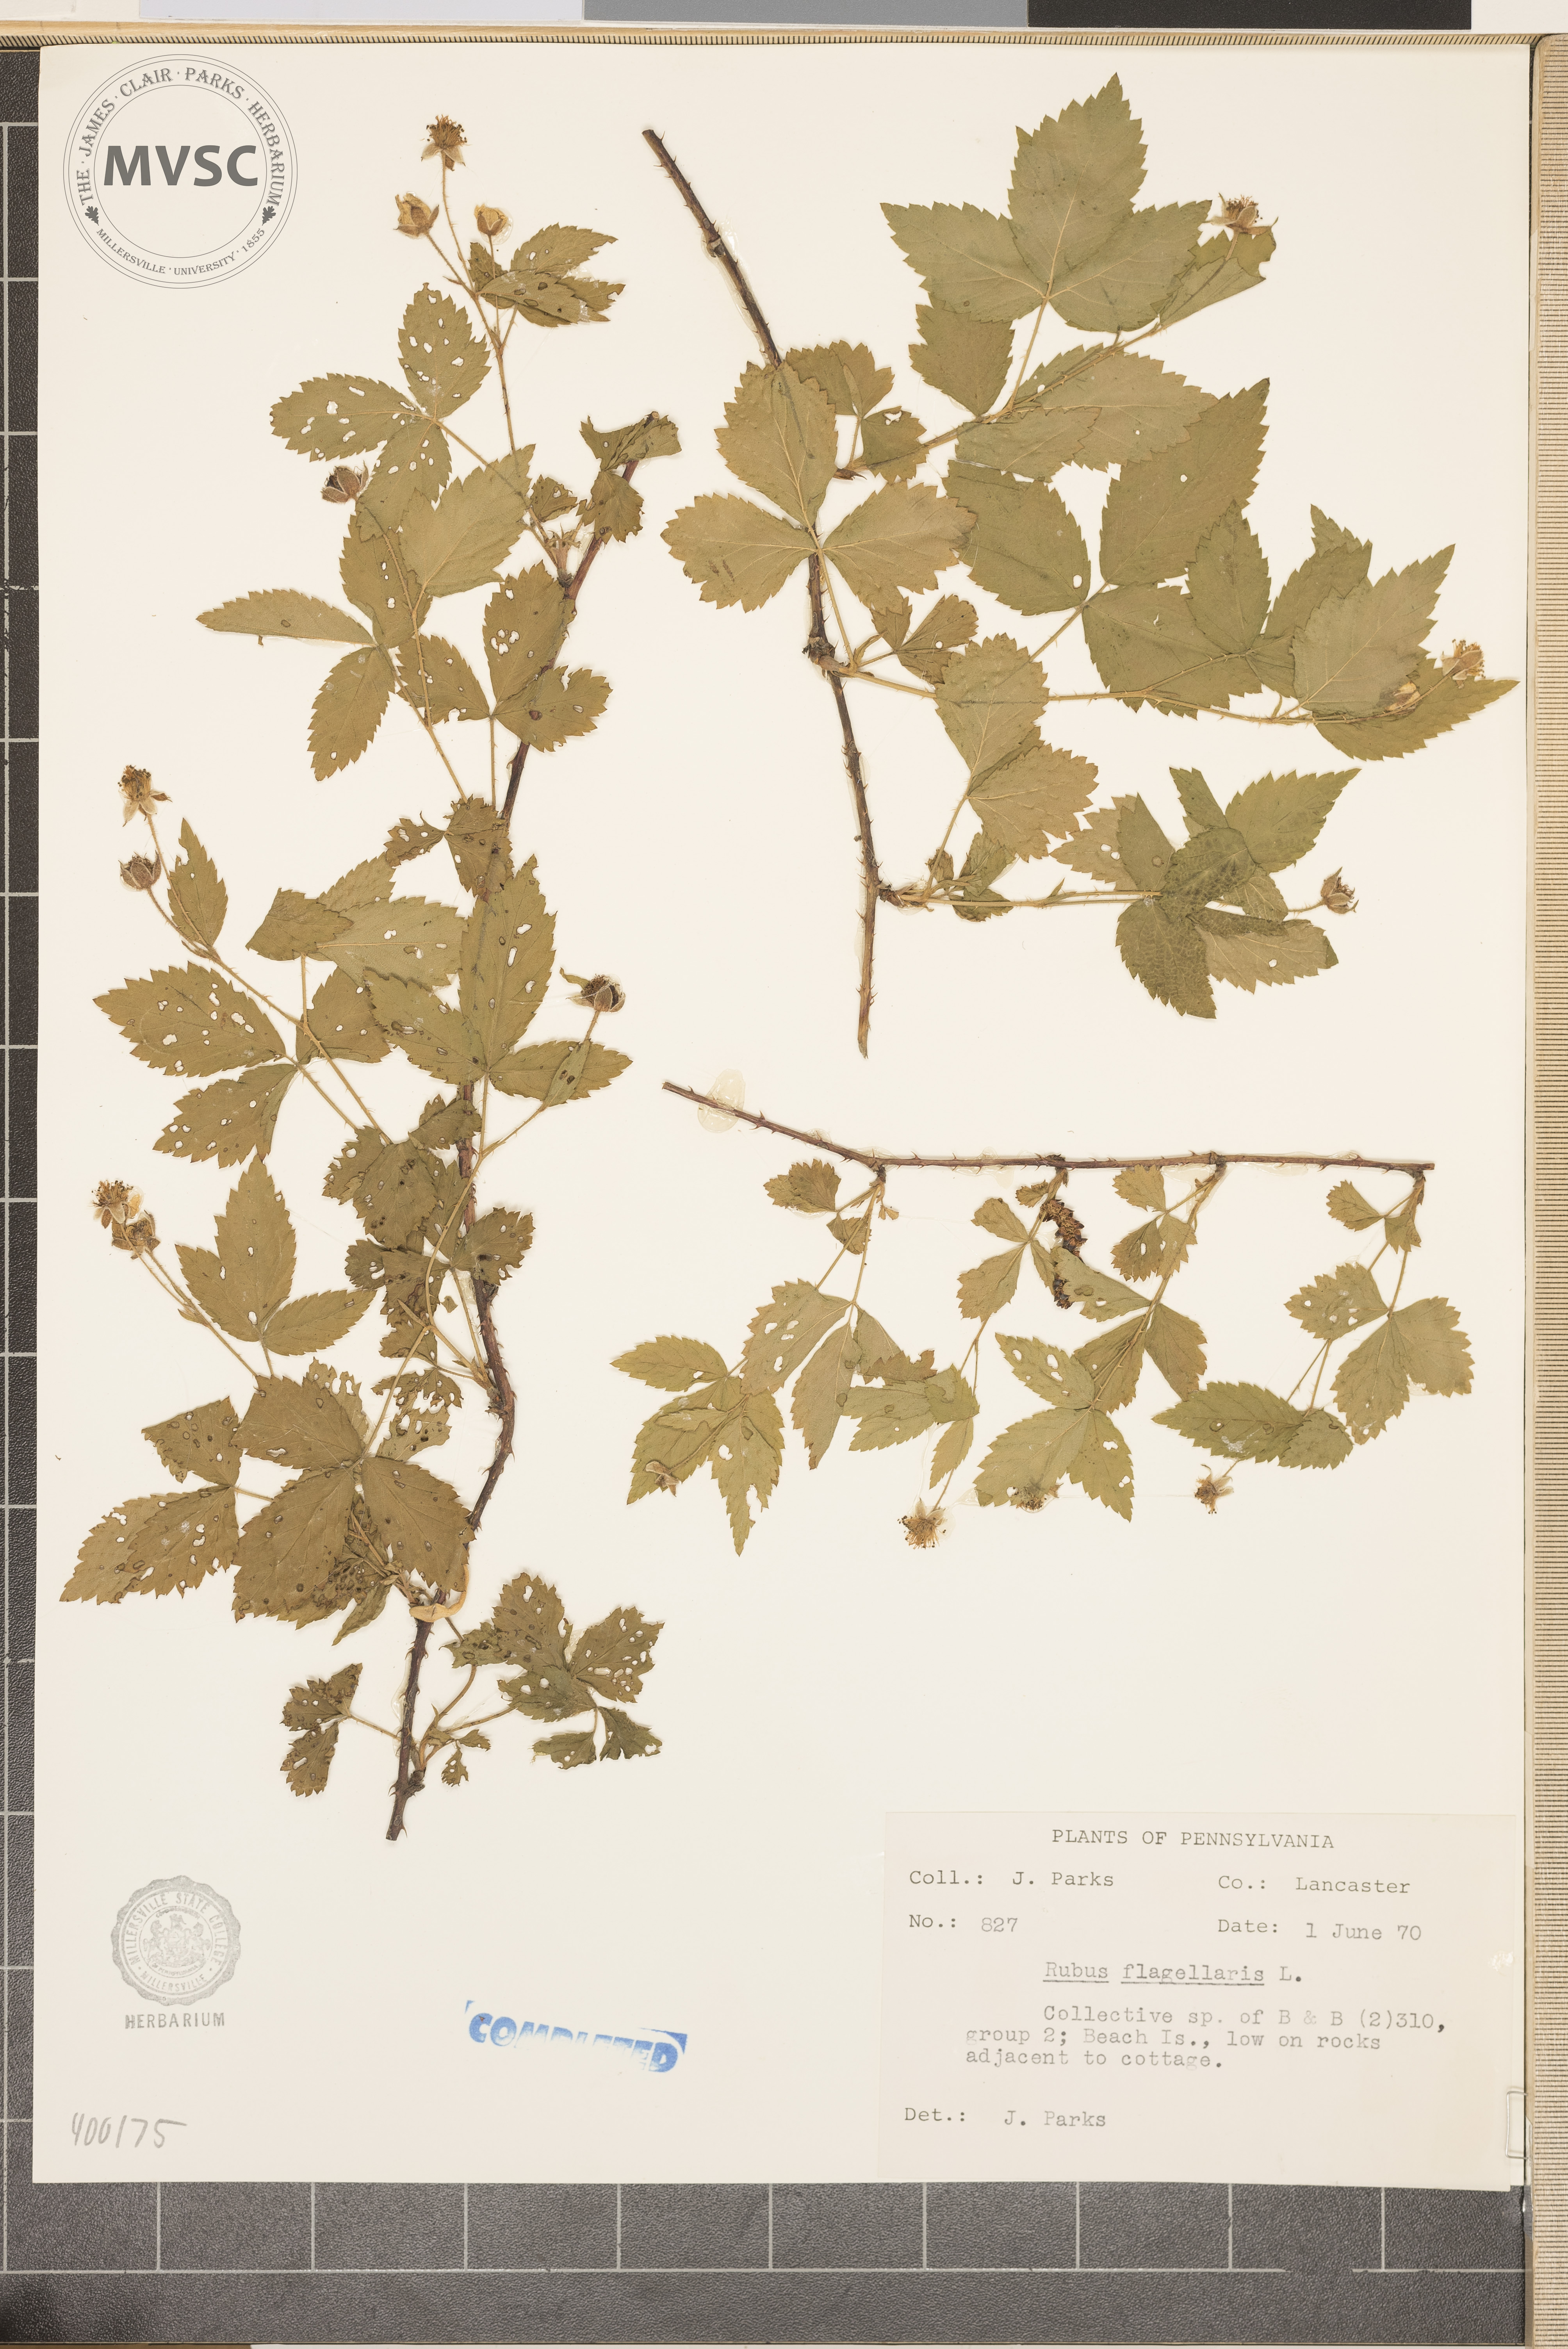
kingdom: Plantae
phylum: Tracheophyta
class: Magnoliopsida
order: Rosales
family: Rosaceae
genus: Rubus
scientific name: Rubus flagellaris
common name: American dewberry
